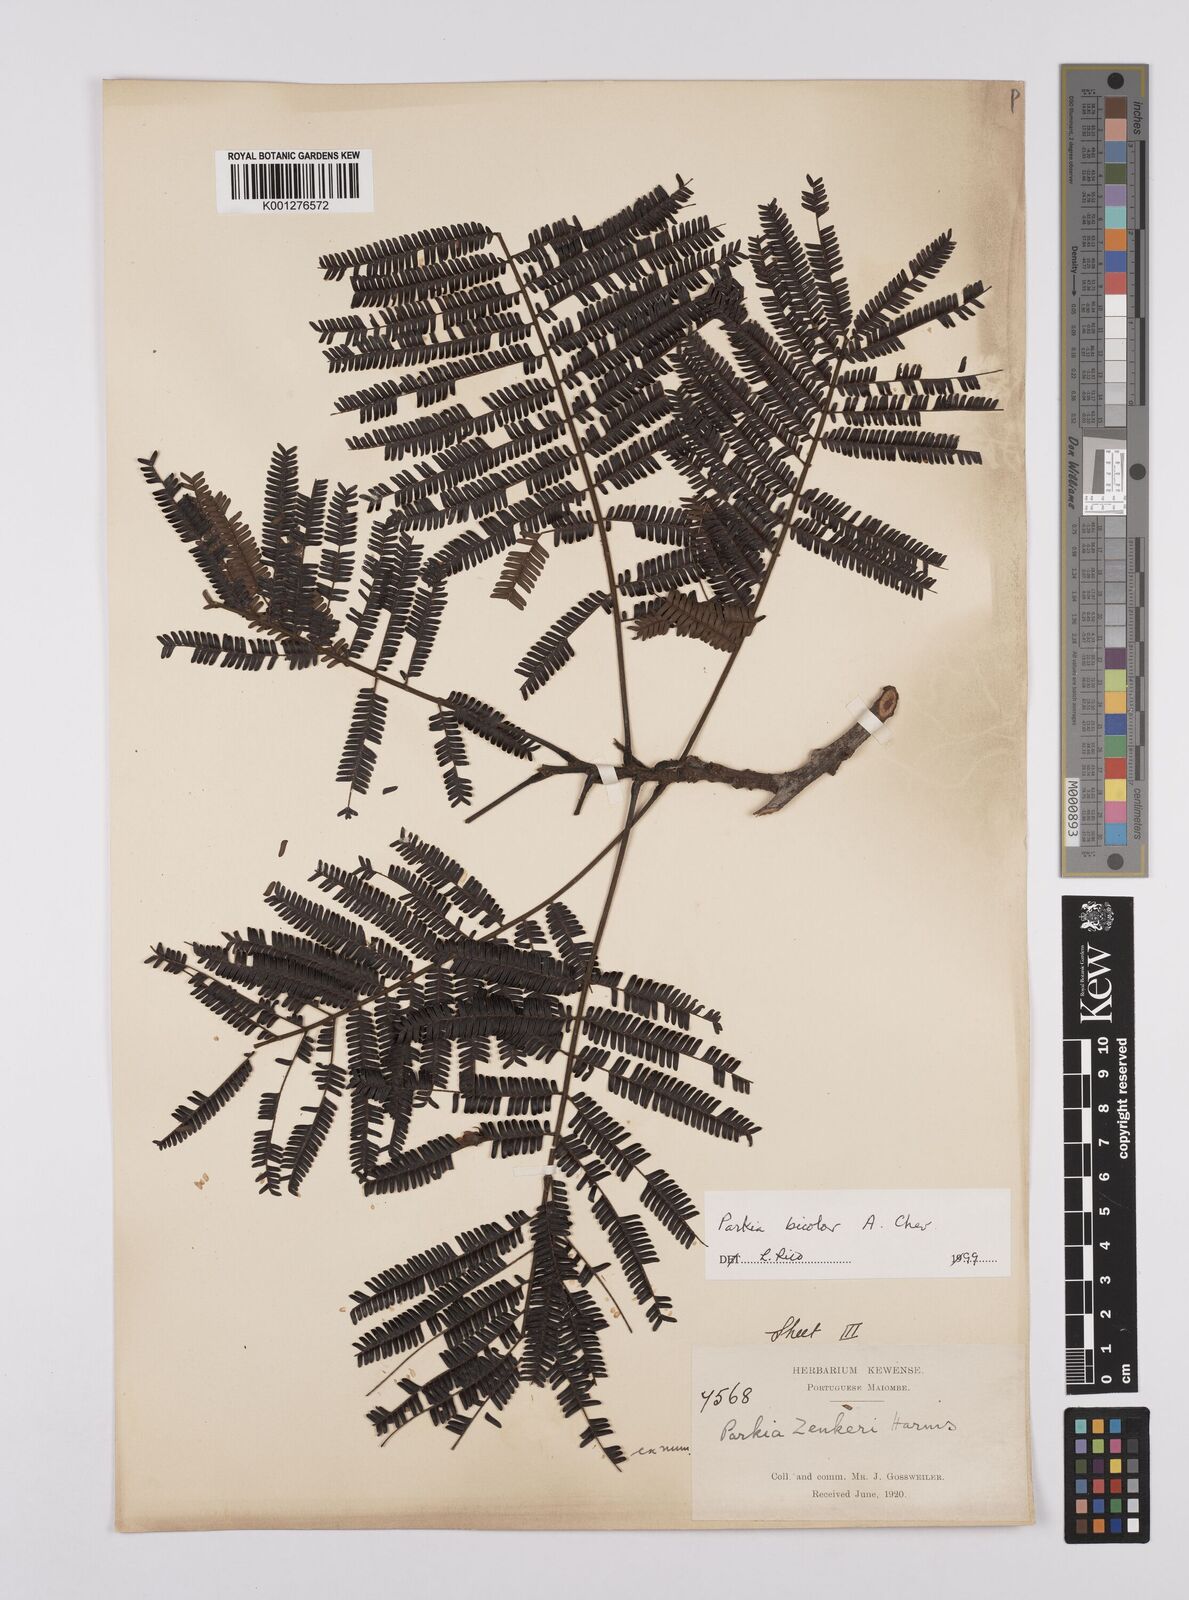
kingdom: Plantae
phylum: Tracheophyta
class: Magnoliopsida
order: Fabales
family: Fabaceae
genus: Parkia
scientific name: Parkia bicolor
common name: African locust-bean
